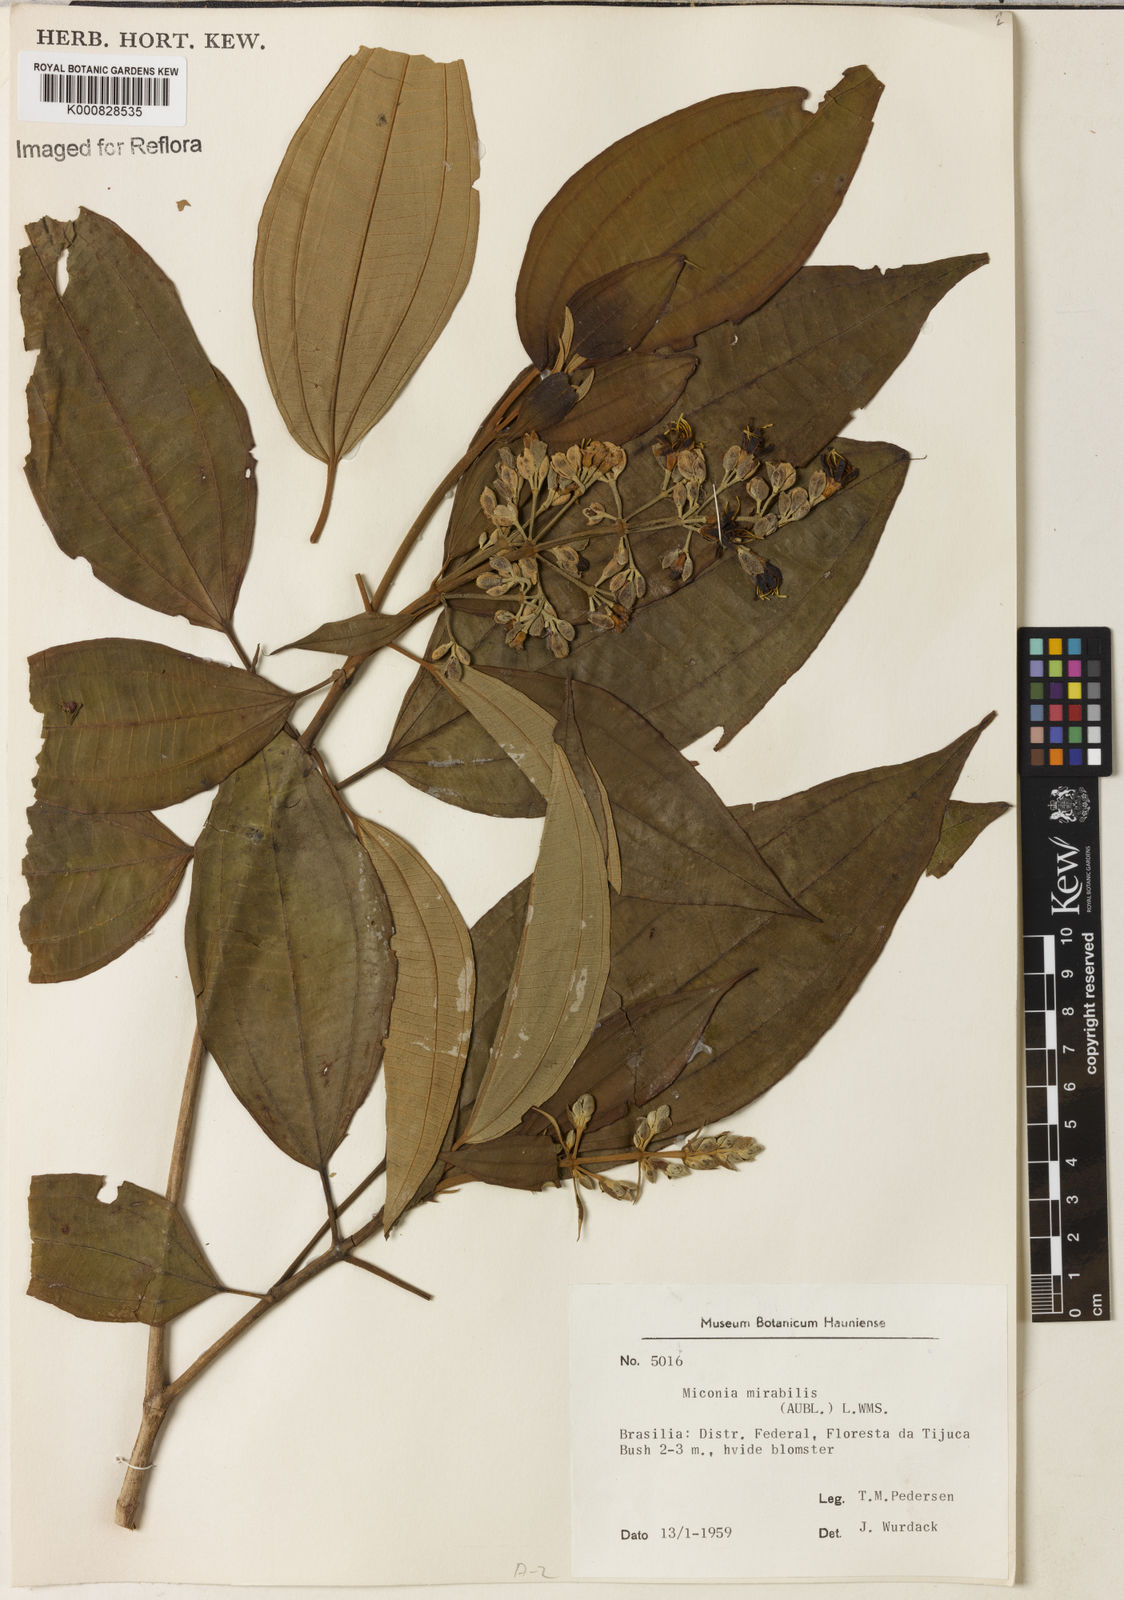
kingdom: Plantae
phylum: Tracheophyta
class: Magnoliopsida
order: Myrtales
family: Melastomataceae
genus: Miconia
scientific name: Miconia mirabilis
